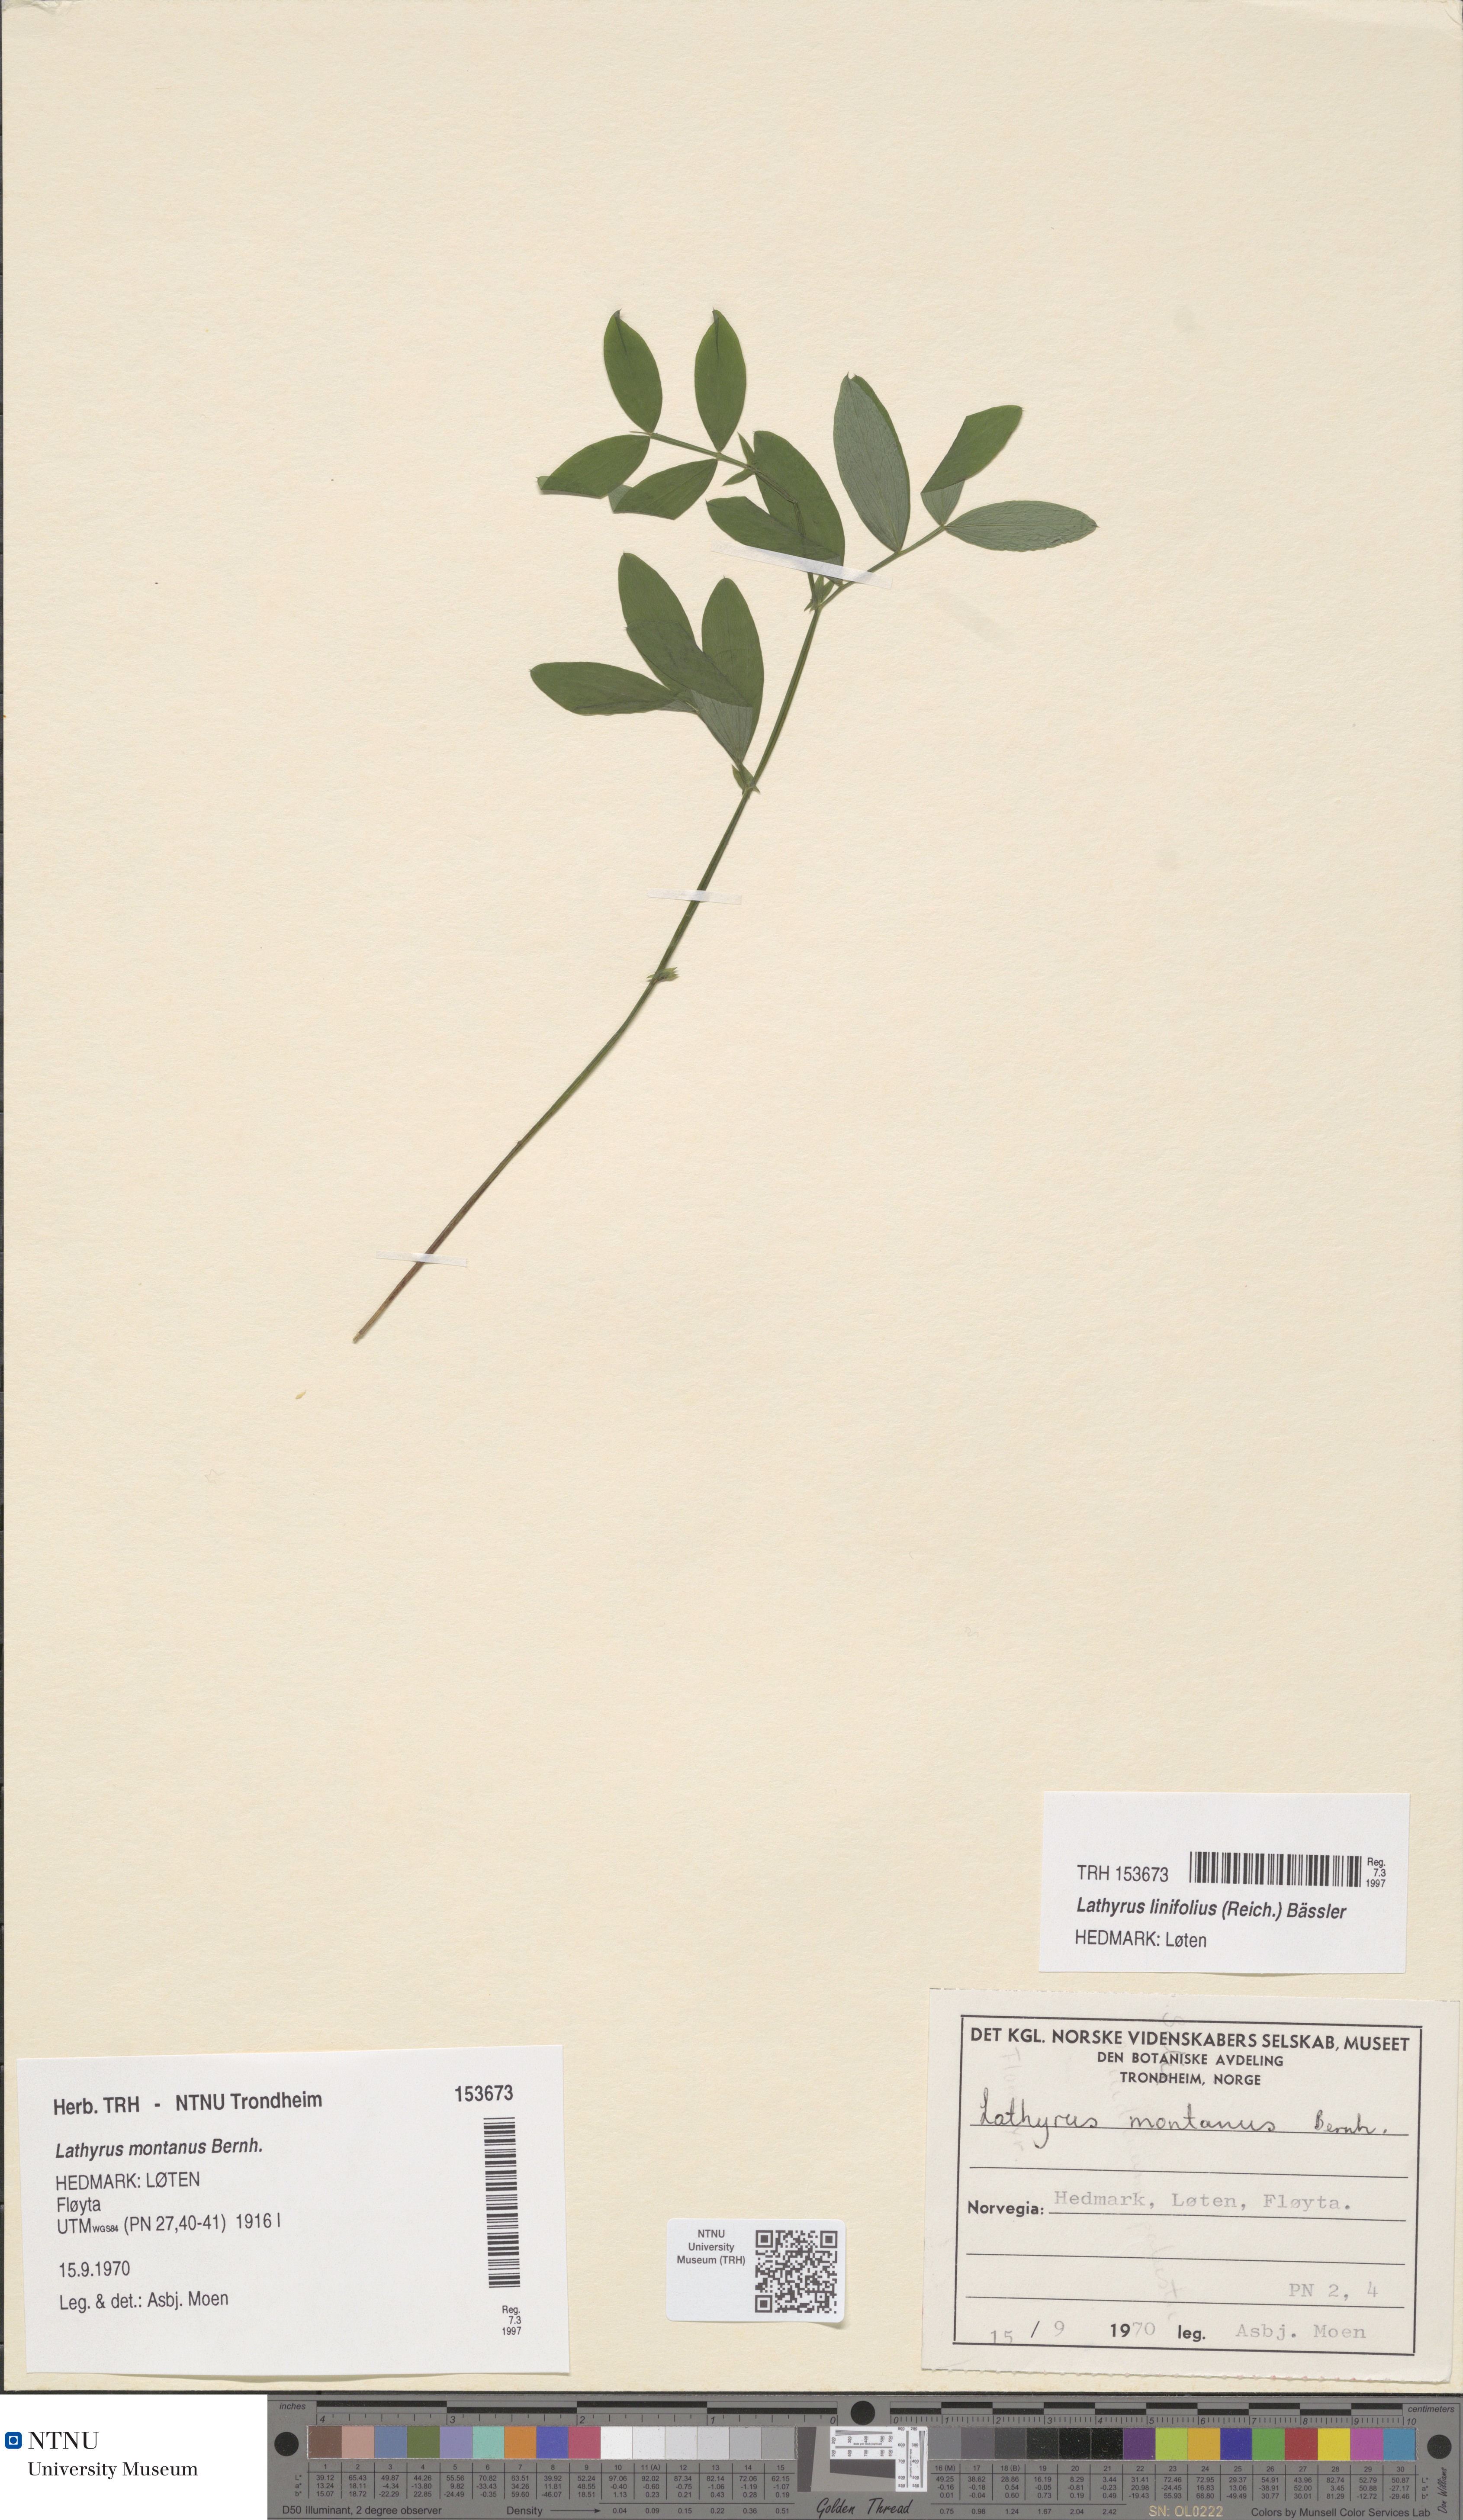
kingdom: Plantae
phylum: Tracheophyta
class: Magnoliopsida
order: Fabales
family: Fabaceae
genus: Lathyrus
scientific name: Lathyrus linifolius
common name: Bitter-vetch
